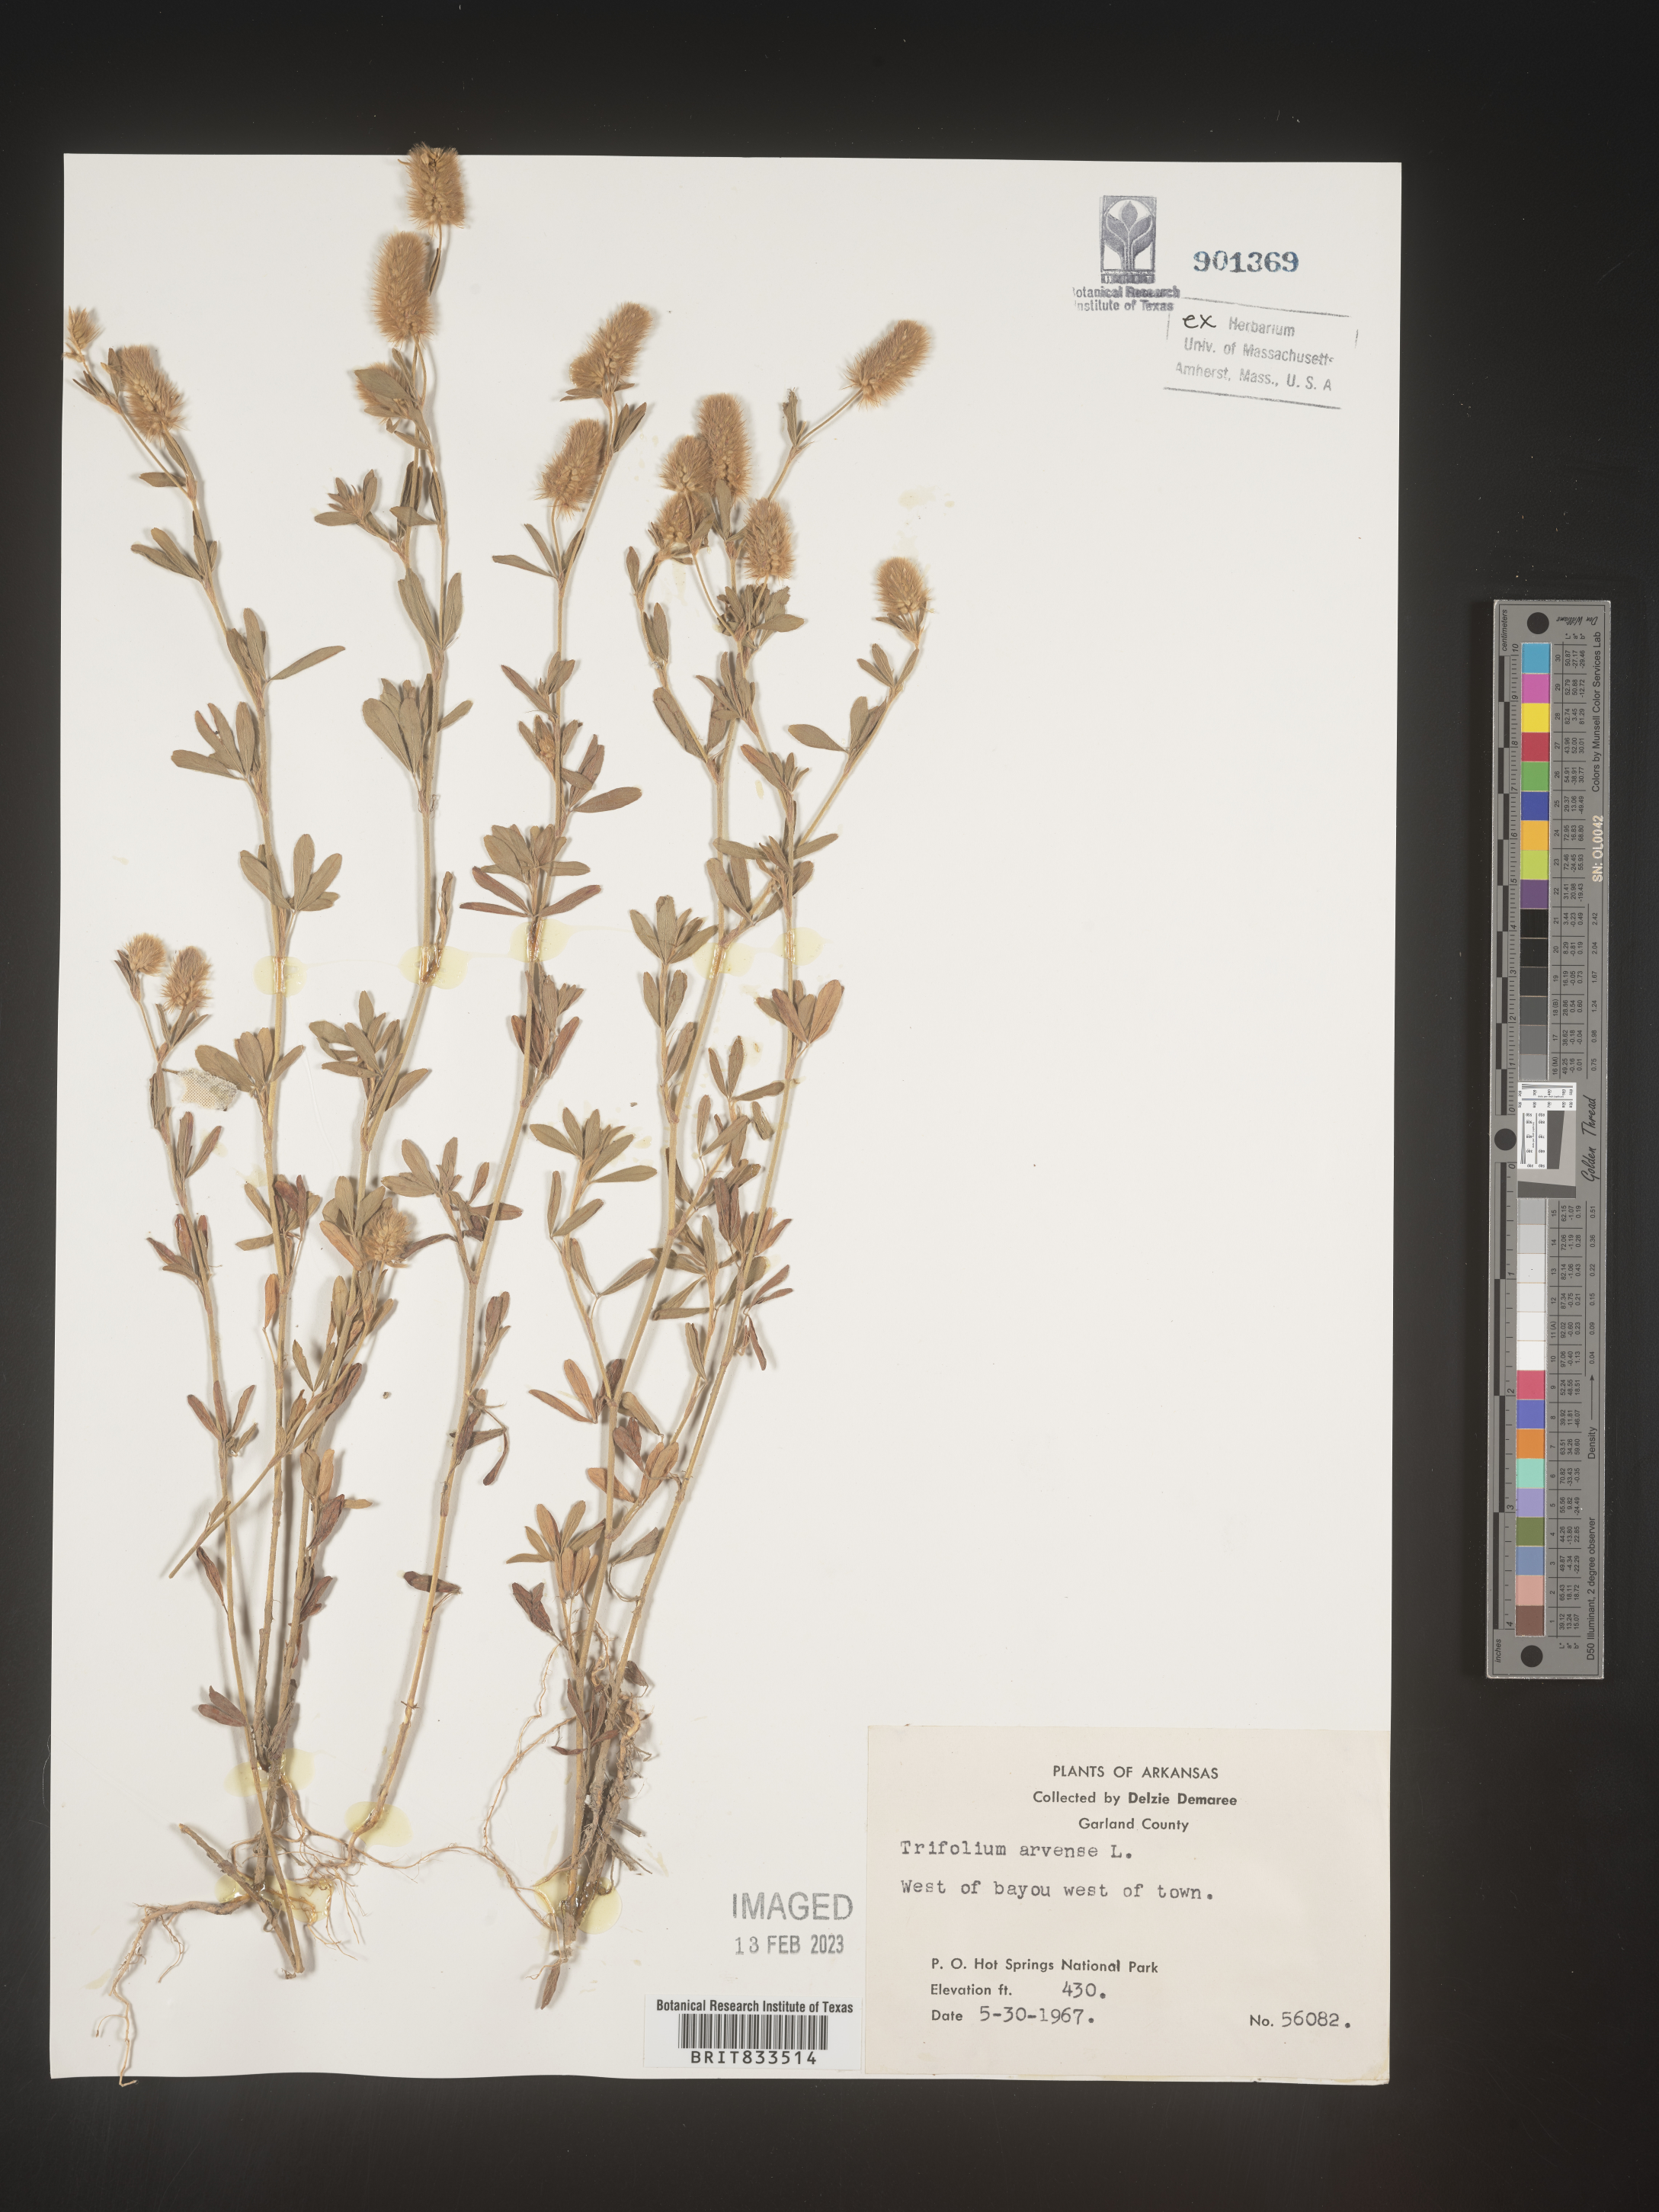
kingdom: Plantae
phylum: Tracheophyta
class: Magnoliopsida
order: Fabales
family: Fabaceae
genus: Trifolium
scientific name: Trifolium arvense
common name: Hare's-foot clover
